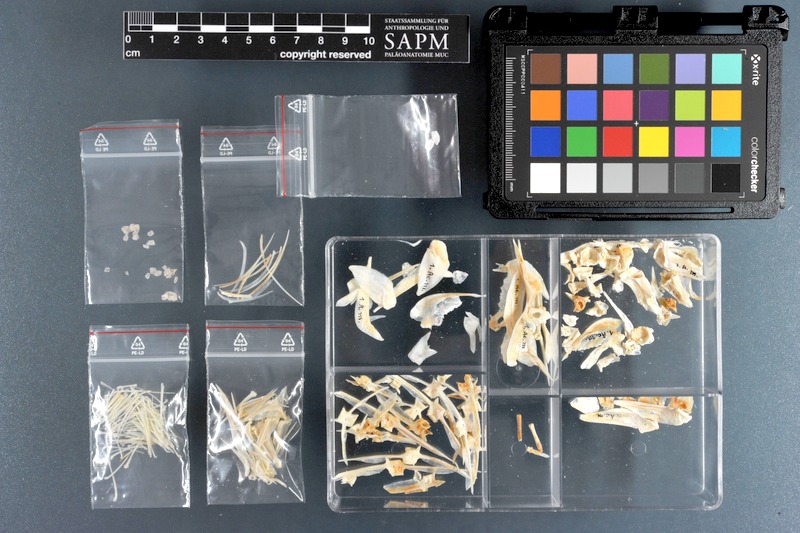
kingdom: Animalia
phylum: Chordata
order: Perciformes
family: Acanthuridae
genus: Acanthurus
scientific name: Acanthurus monroviae
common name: Monrovia surgeonfish
